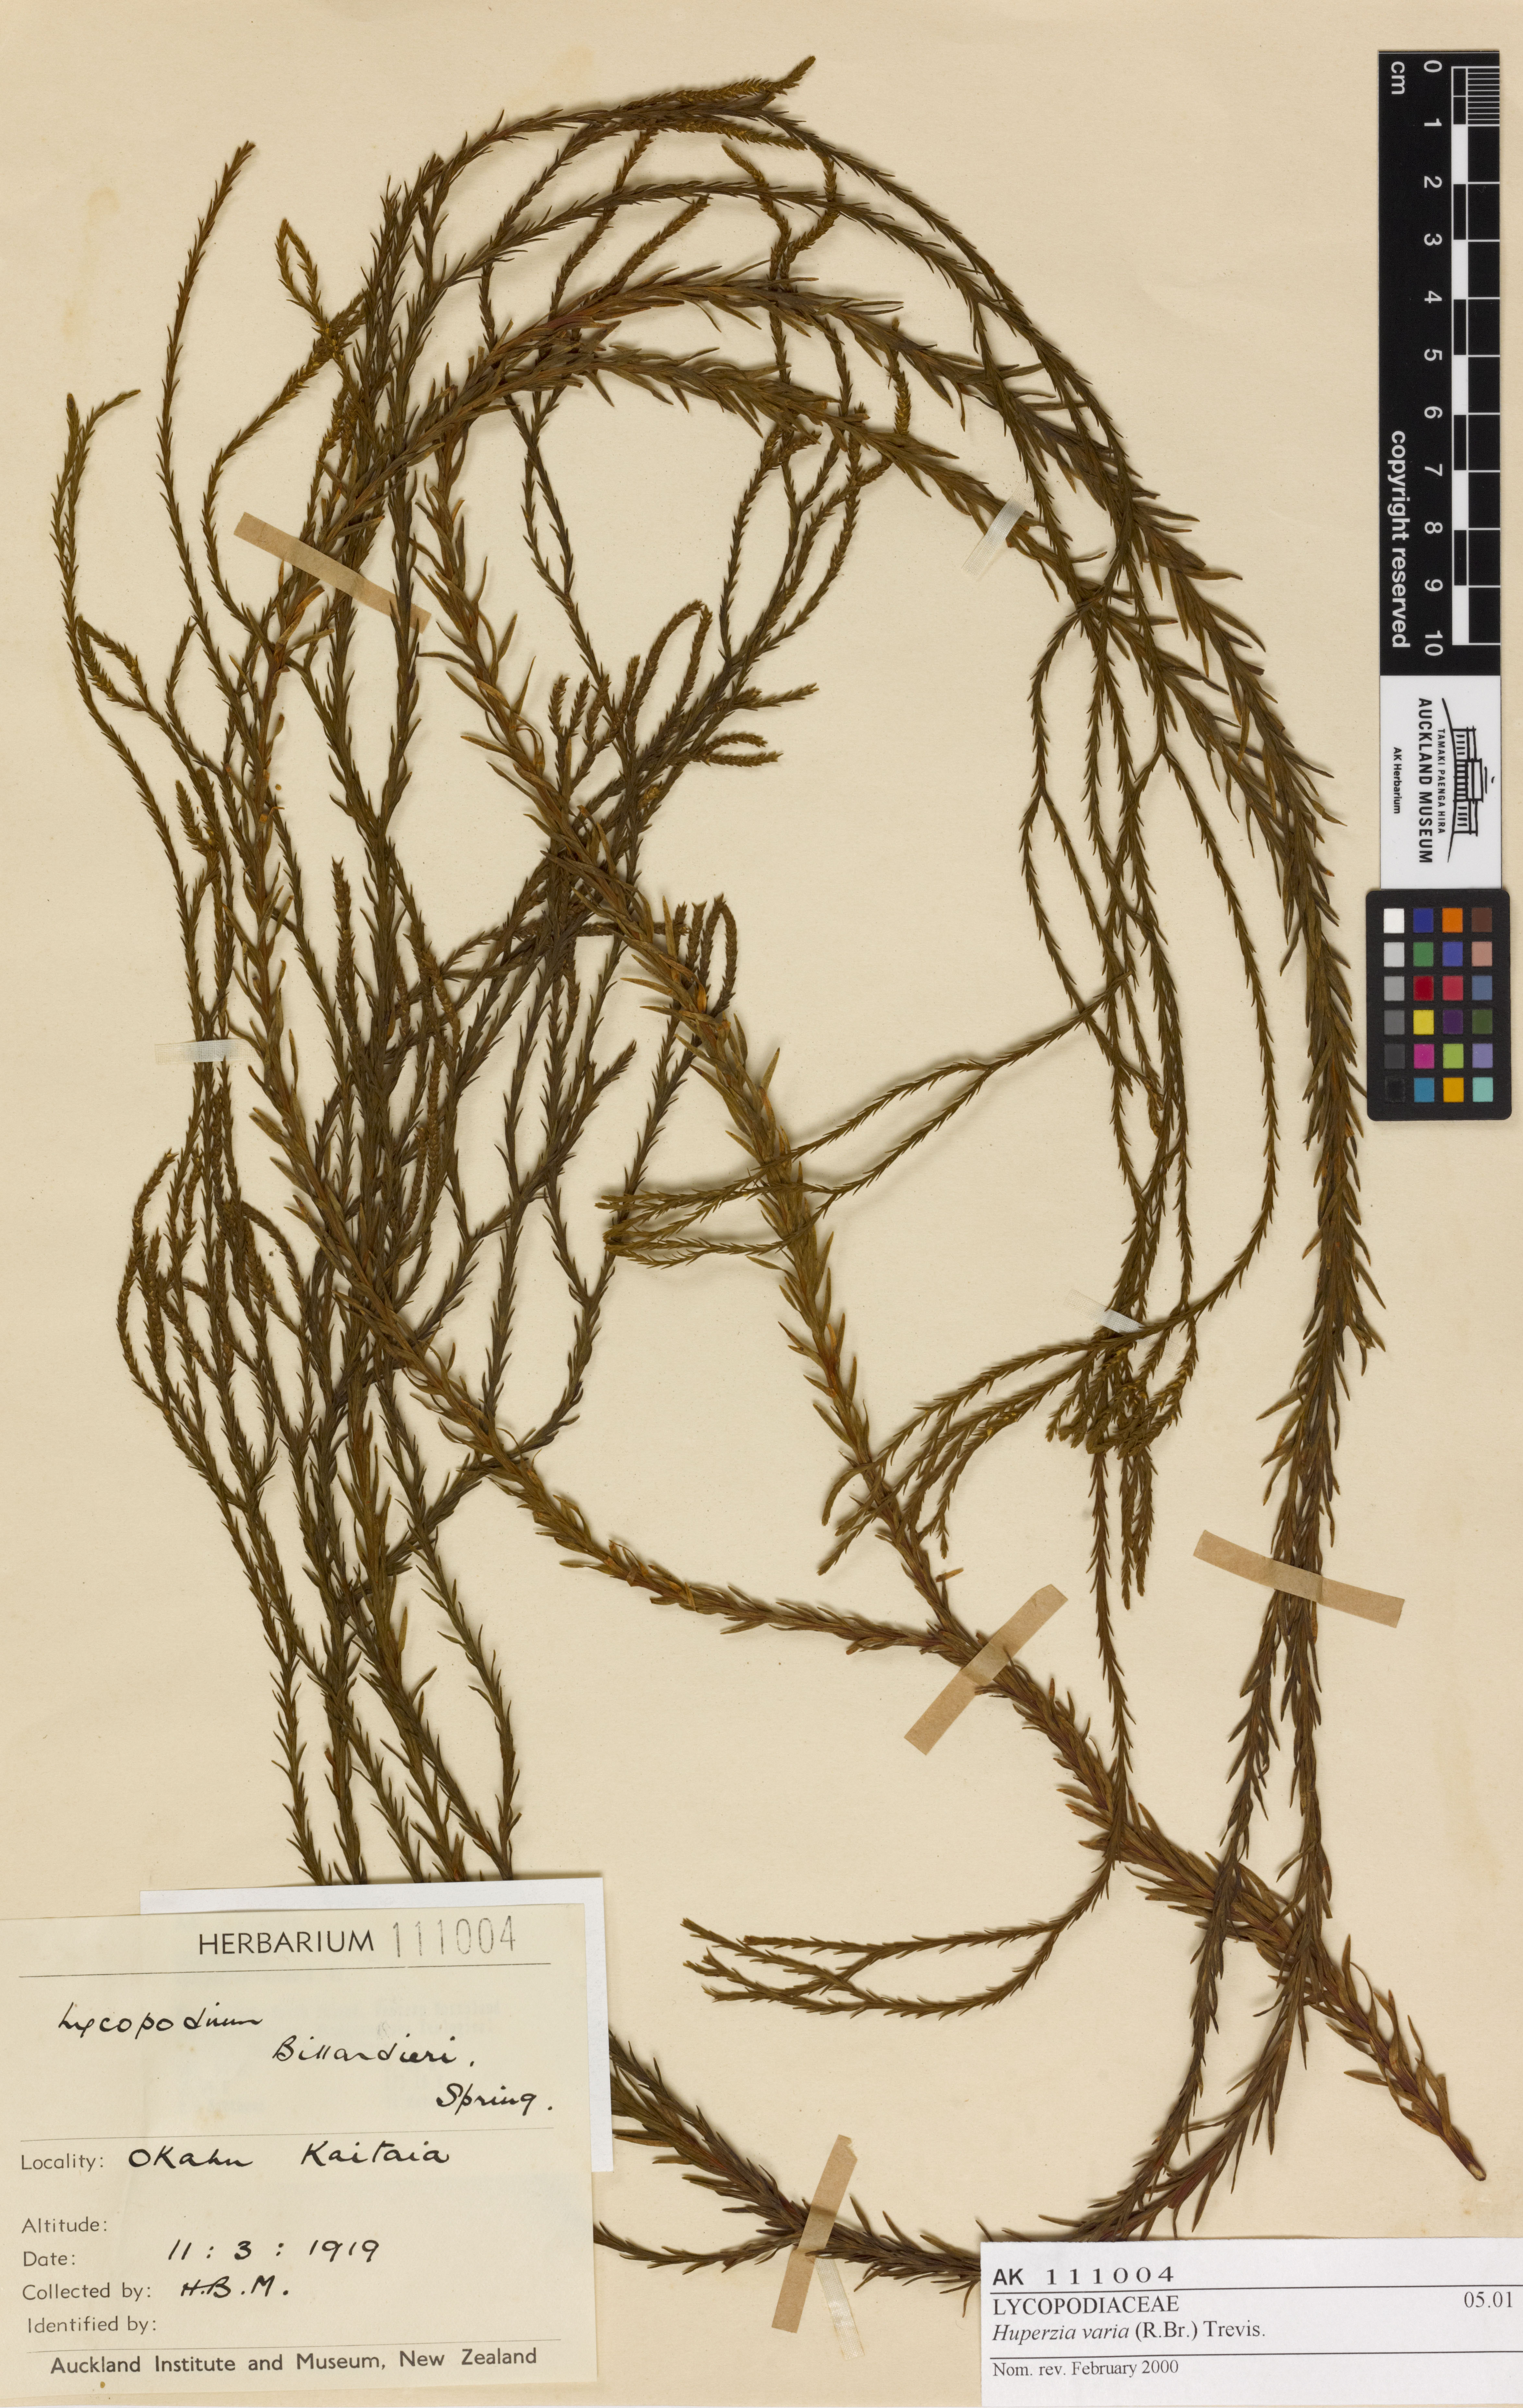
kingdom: Plantae
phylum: Tracheophyta
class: Lycopodiopsida
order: Lycopodiales
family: Lycopodiaceae
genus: Phlegmariurus
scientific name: Phlegmariurus billardierei
